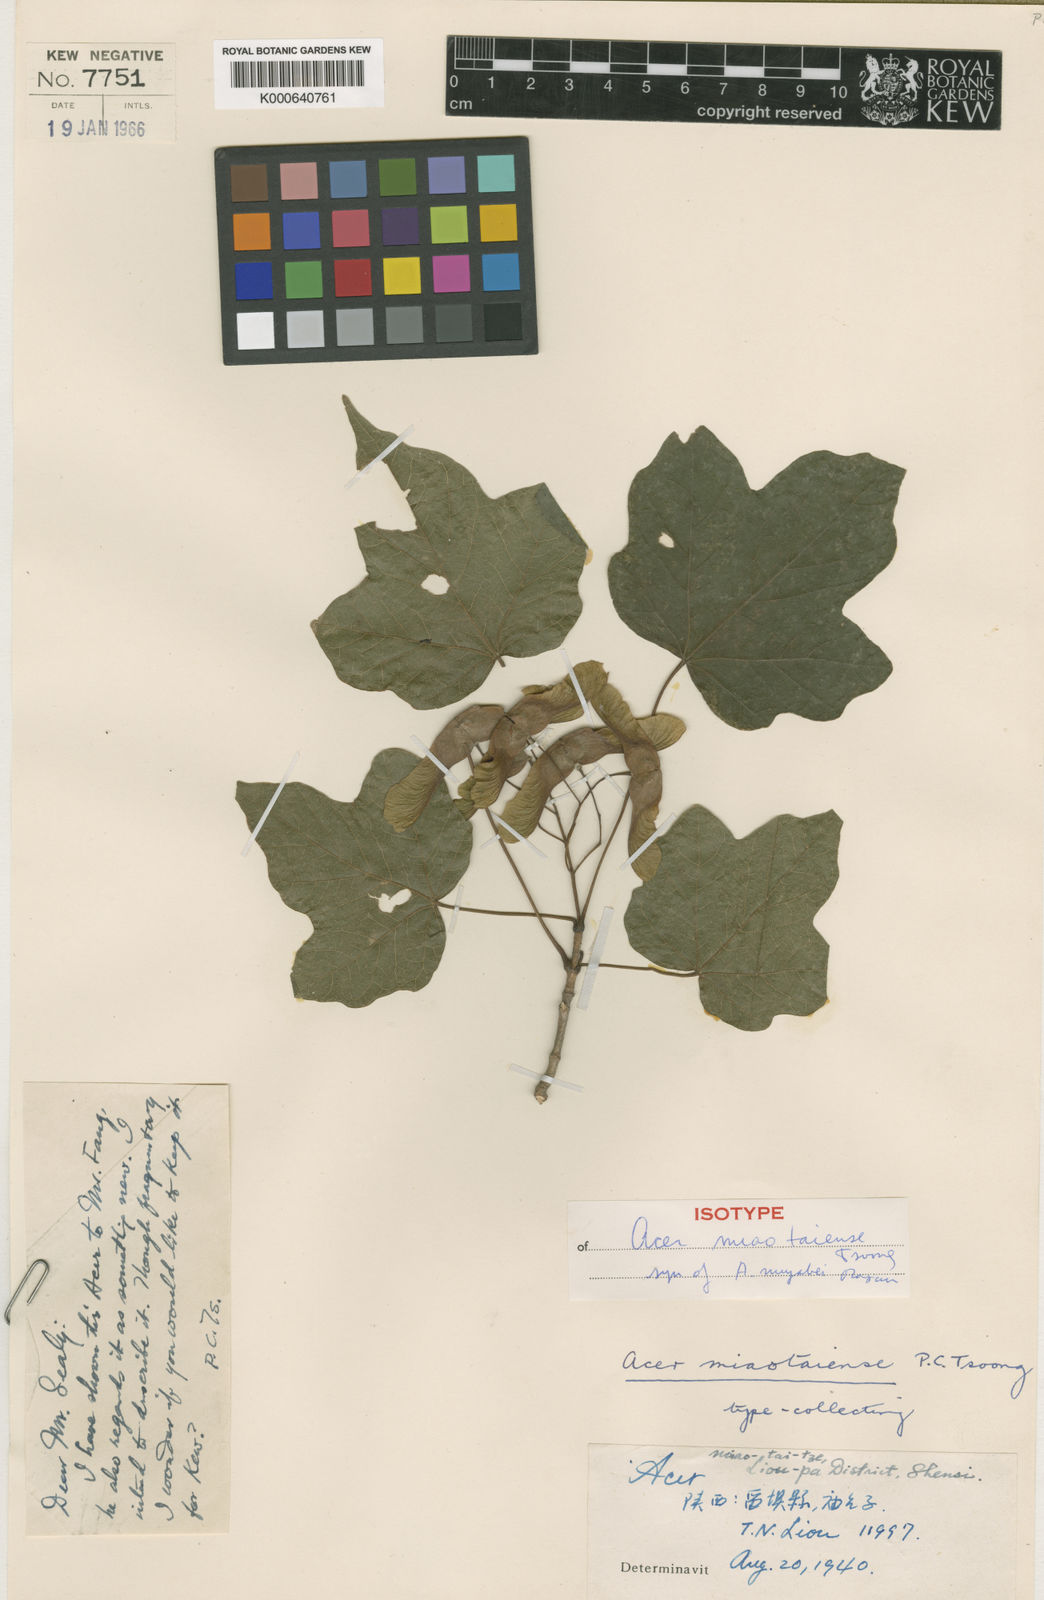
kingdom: Plantae
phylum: Tracheophyta
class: Magnoliopsida
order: Sapindales
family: Sapindaceae
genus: Acer
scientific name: Acer
